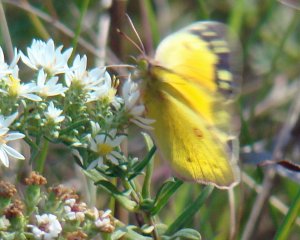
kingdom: Animalia
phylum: Arthropoda
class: Insecta
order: Lepidoptera
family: Pieridae
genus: Colias
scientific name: Colias eurytheme
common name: Orange Sulphur
